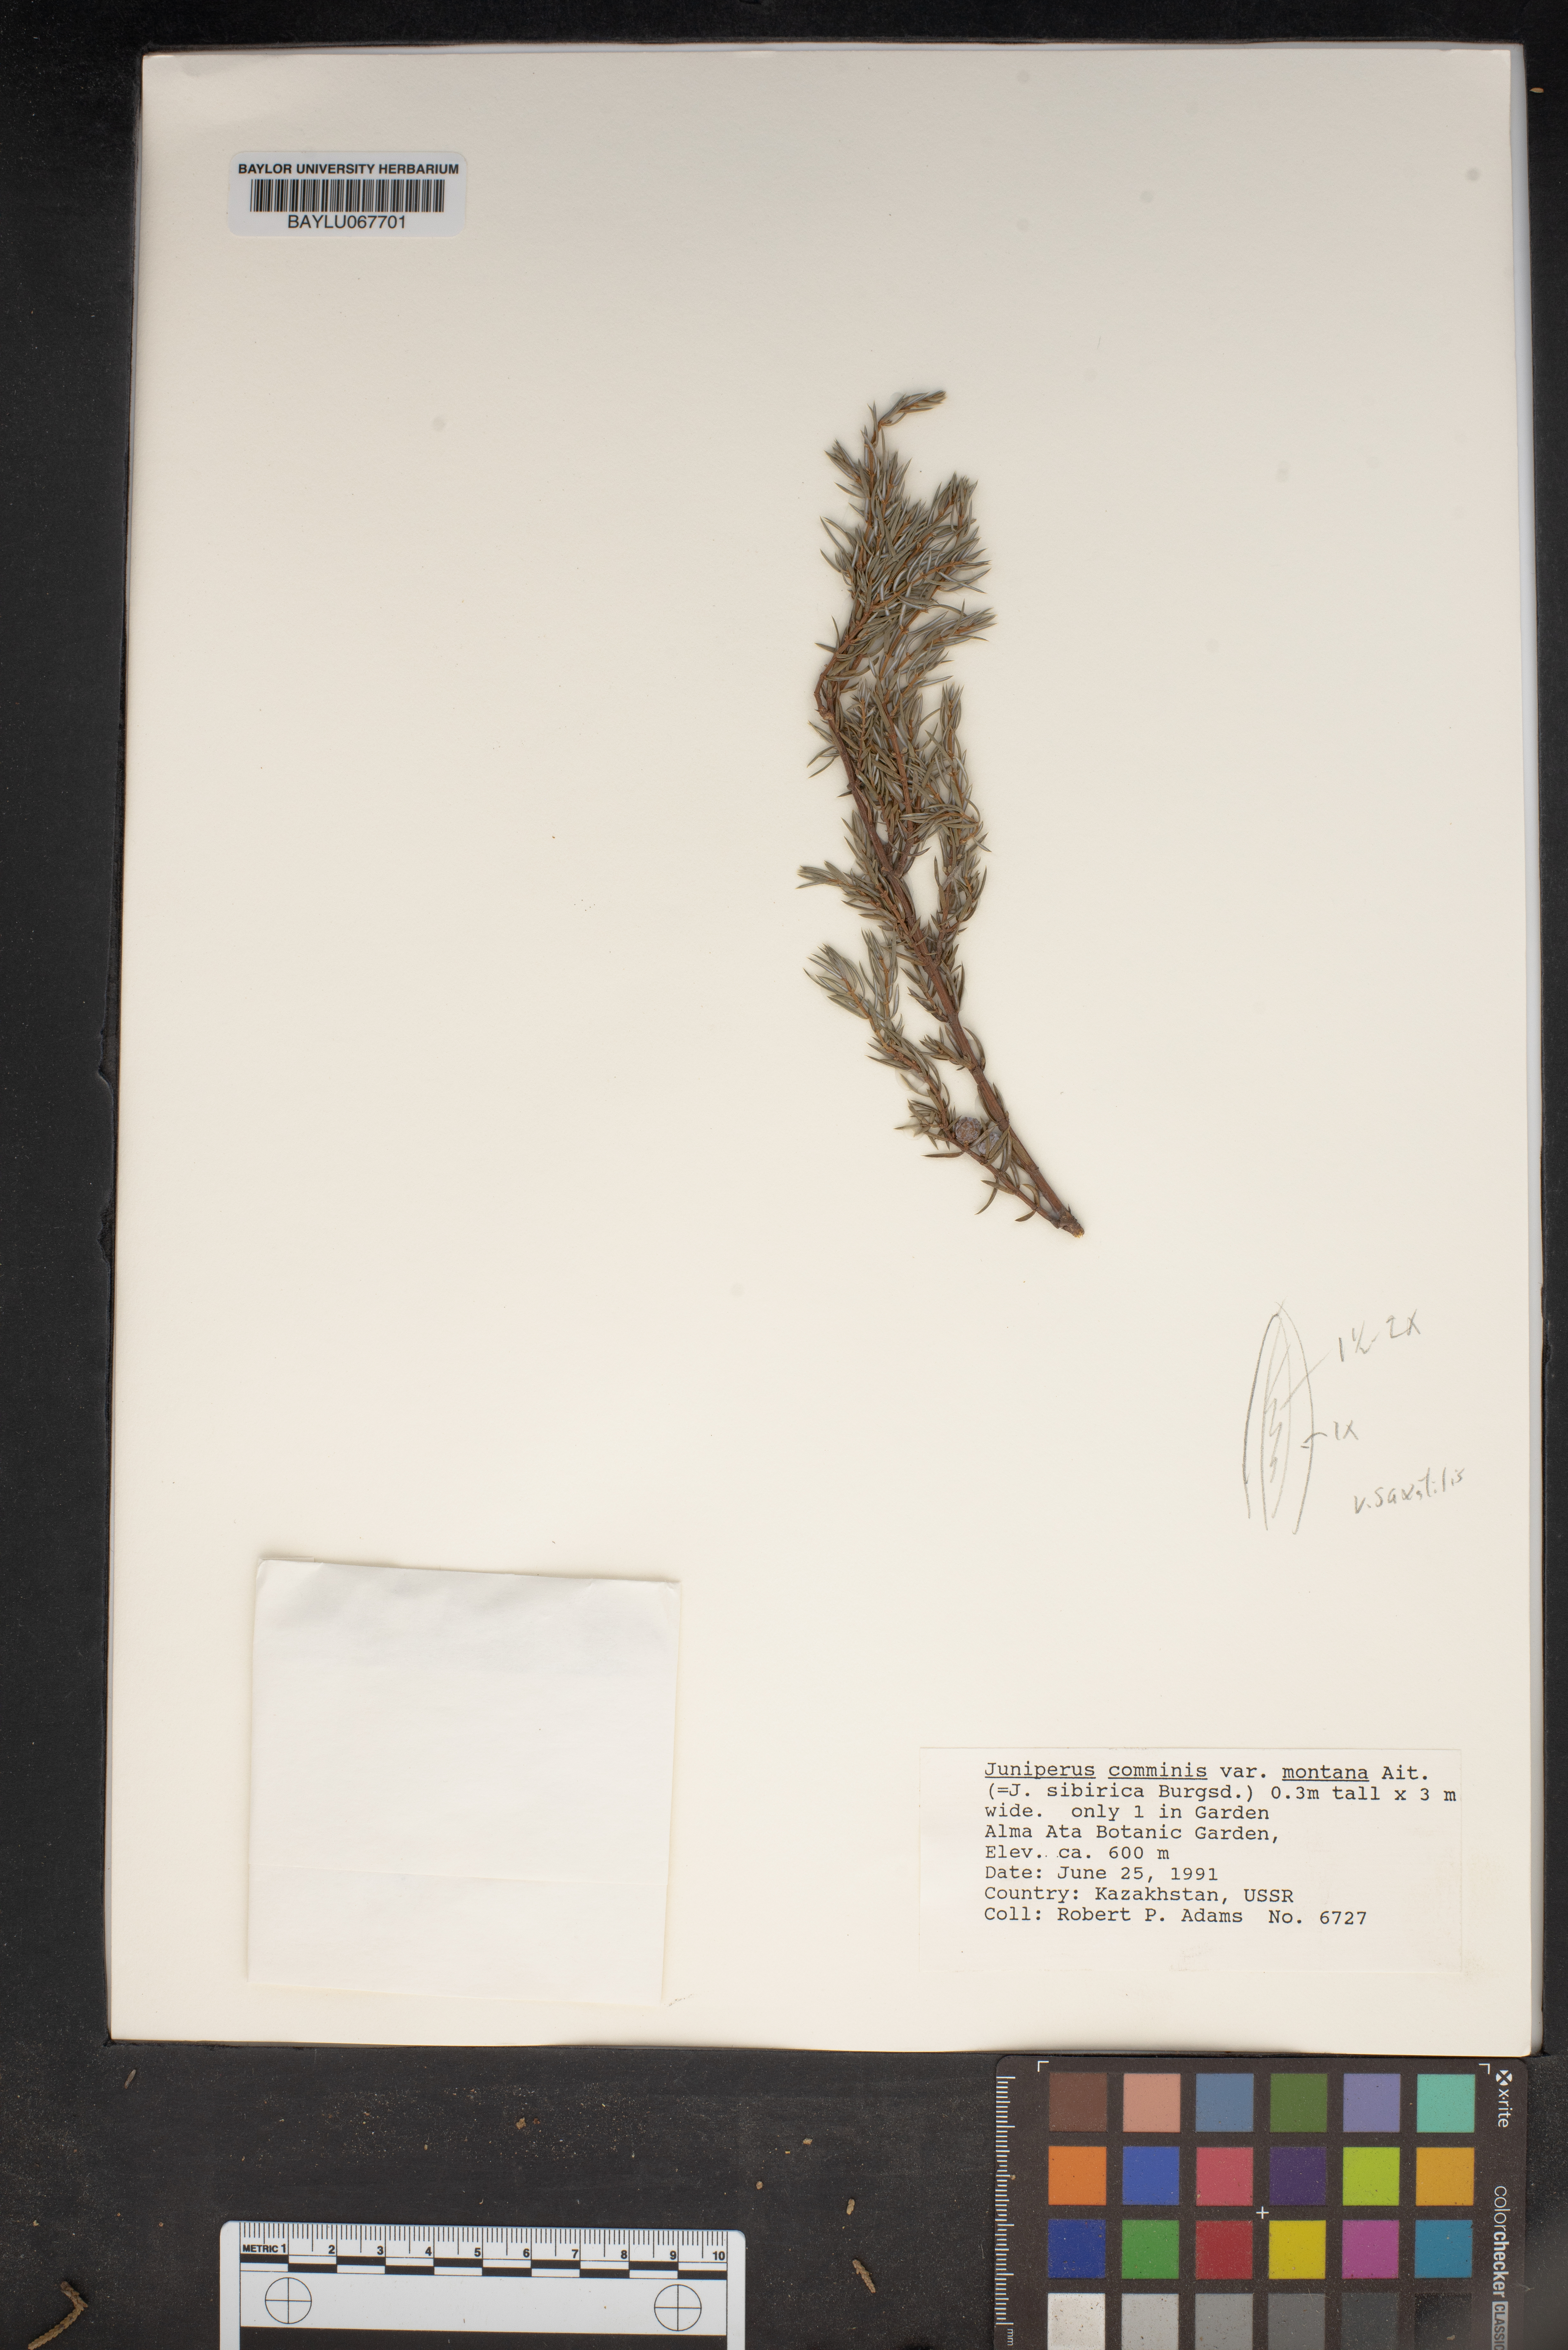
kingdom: Plantae
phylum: Tracheophyta
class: Pinopsida
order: Pinales
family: Cupressaceae
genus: Juniperus
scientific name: Juniperus communis
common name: Common juniper
